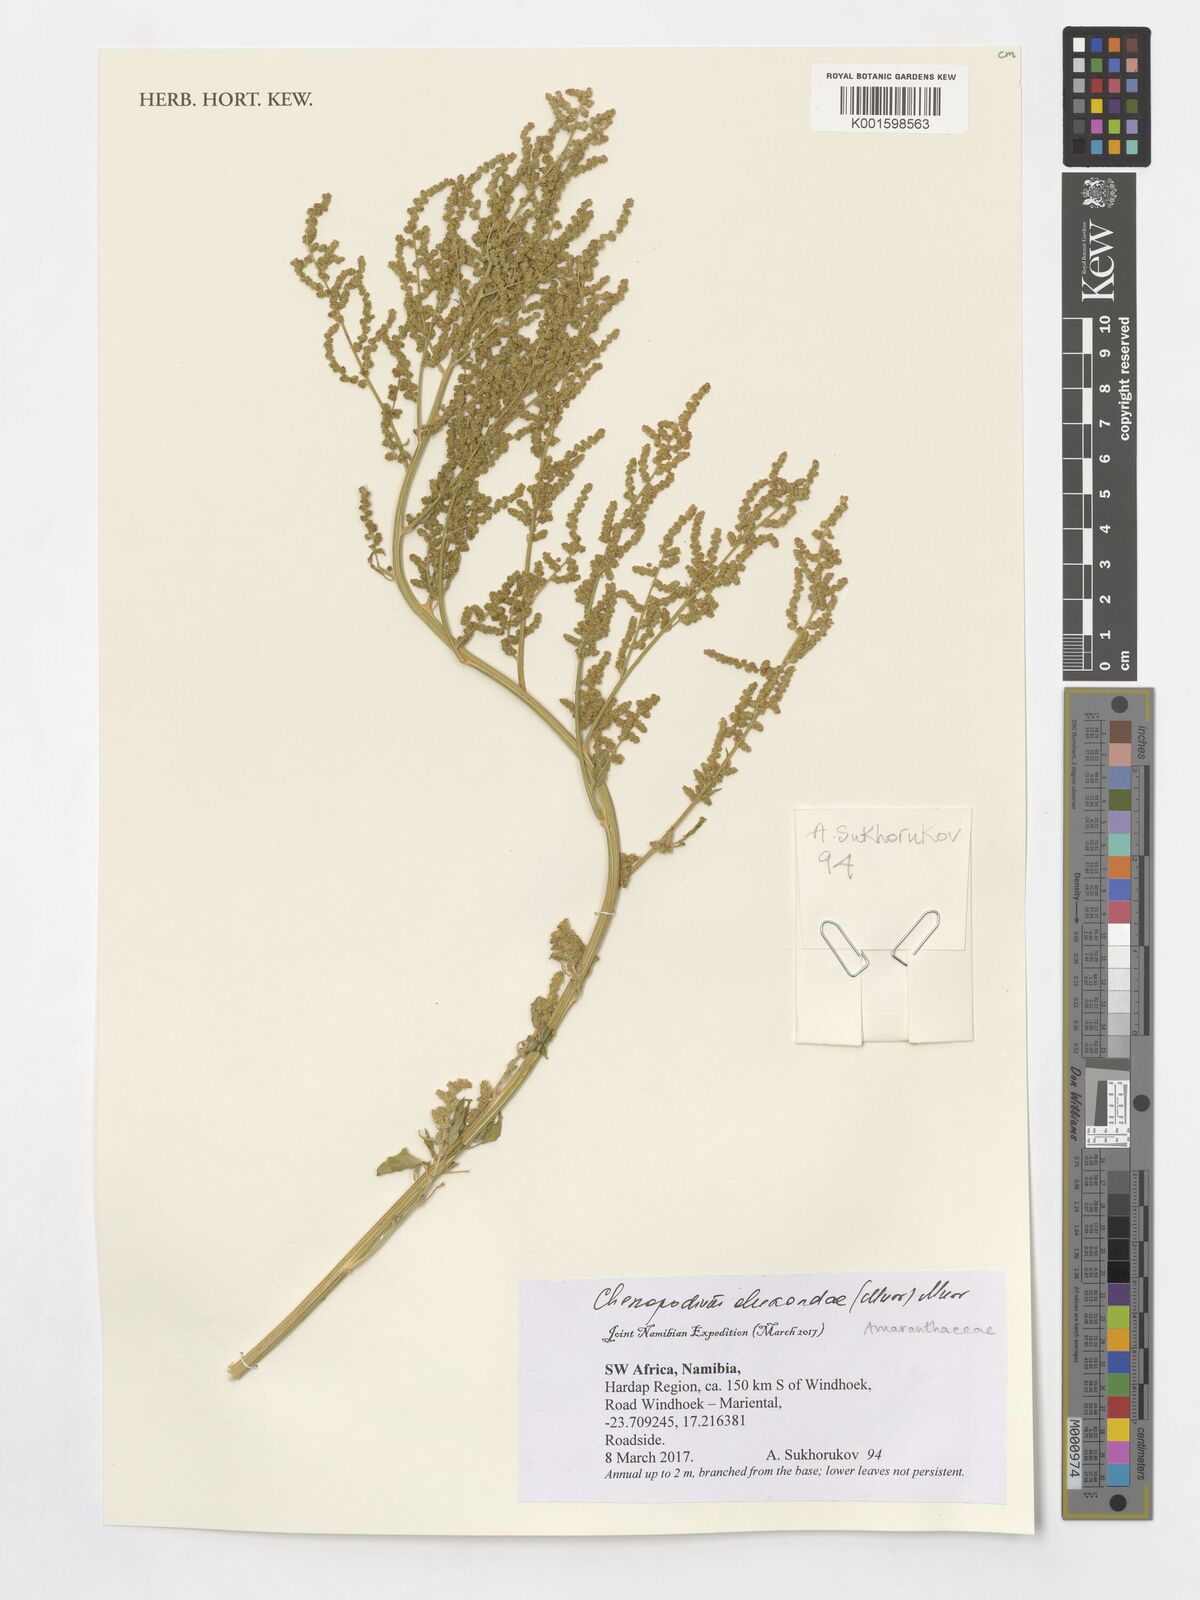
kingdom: Plantae
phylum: Tracheophyta
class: Magnoliopsida
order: Caryophyllales
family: Amaranthaceae
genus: Chenopodium
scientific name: Chenopodium
